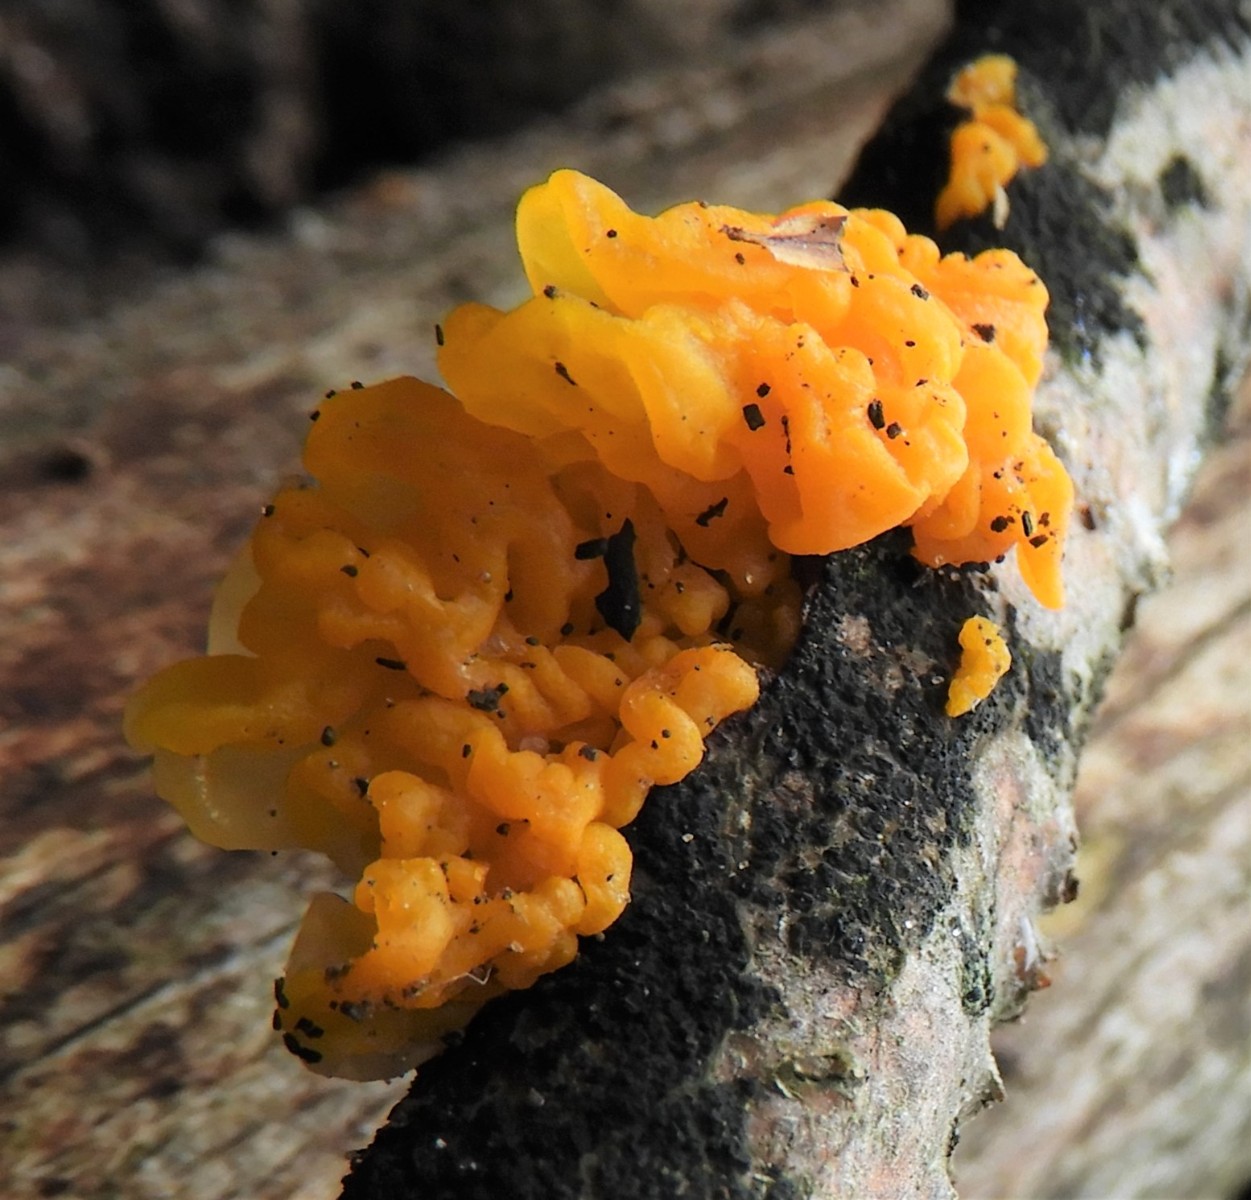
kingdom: Fungi
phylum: Basidiomycota
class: Tremellomycetes
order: Tremellales
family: Tremellaceae
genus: Tremella
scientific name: Tremella mesenterica
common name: gul bævresvamp
